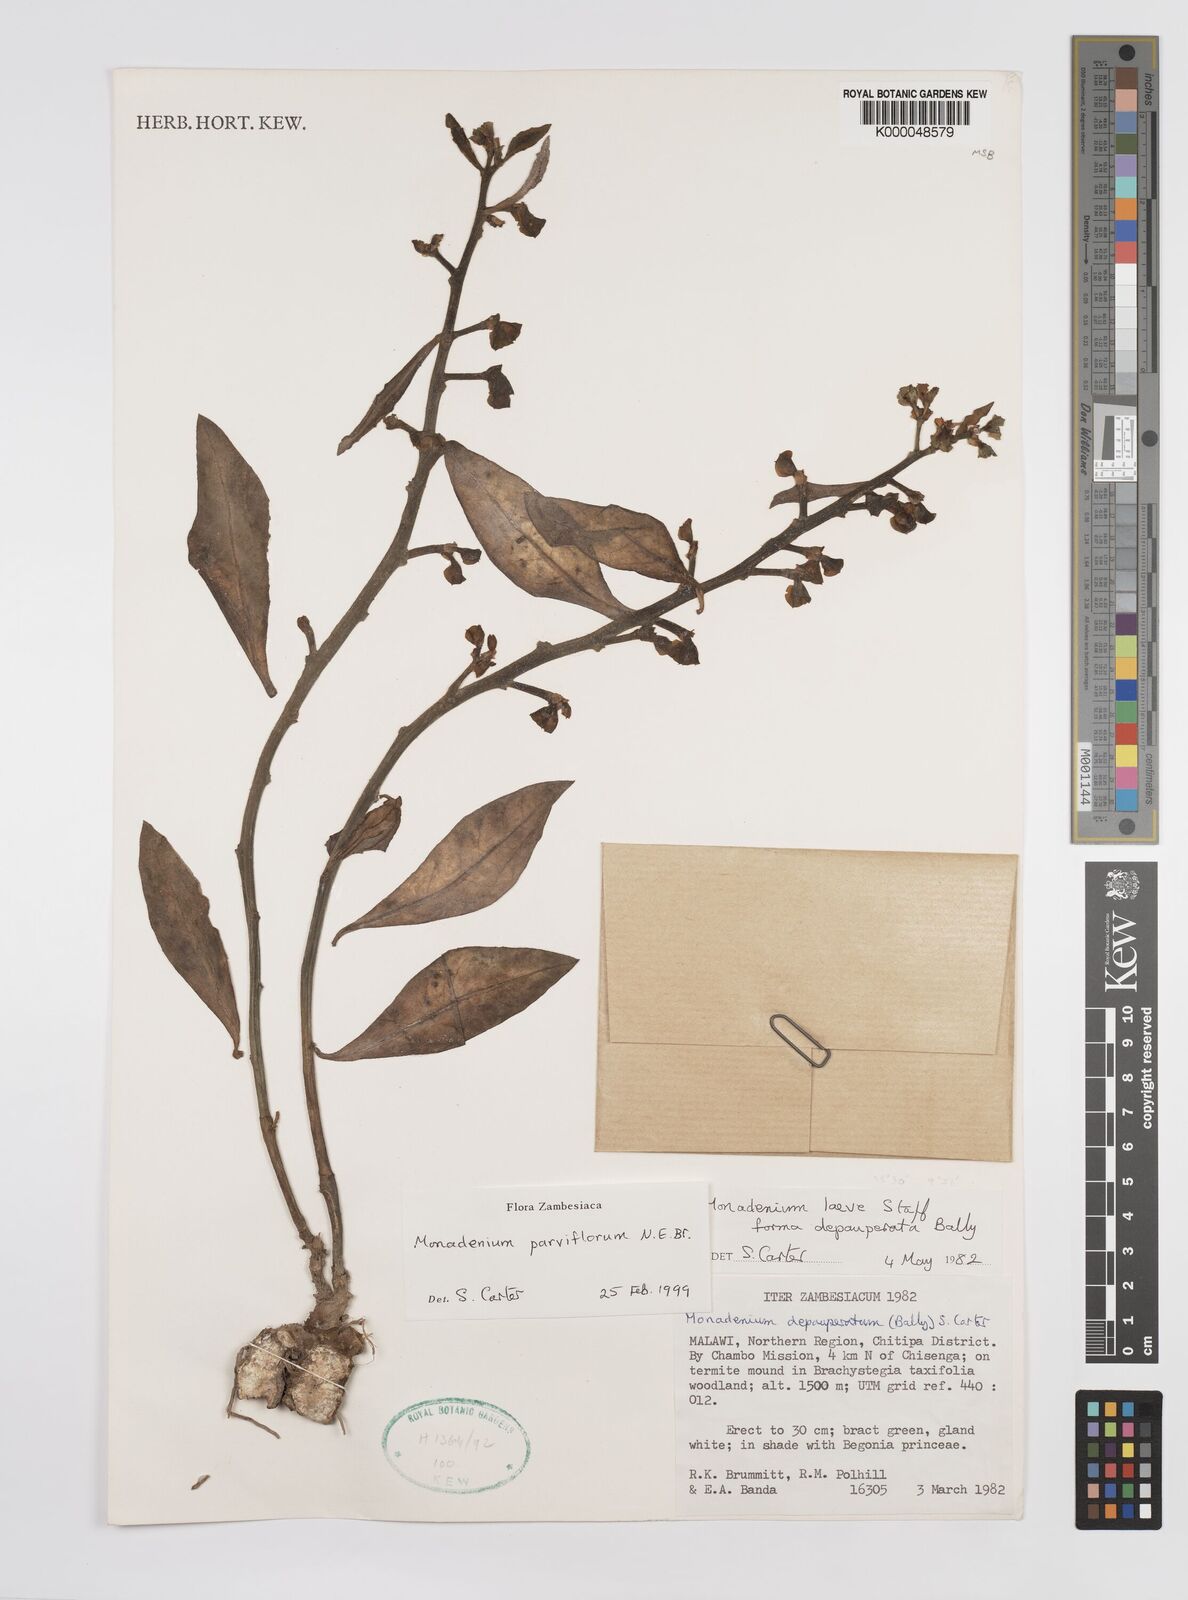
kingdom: Plantae
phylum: Tracheophyta
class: Magnoliopsida
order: Malpighiales
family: Euphorbiaceae
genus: Euphorbia
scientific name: Euphorbia neoparviflora
